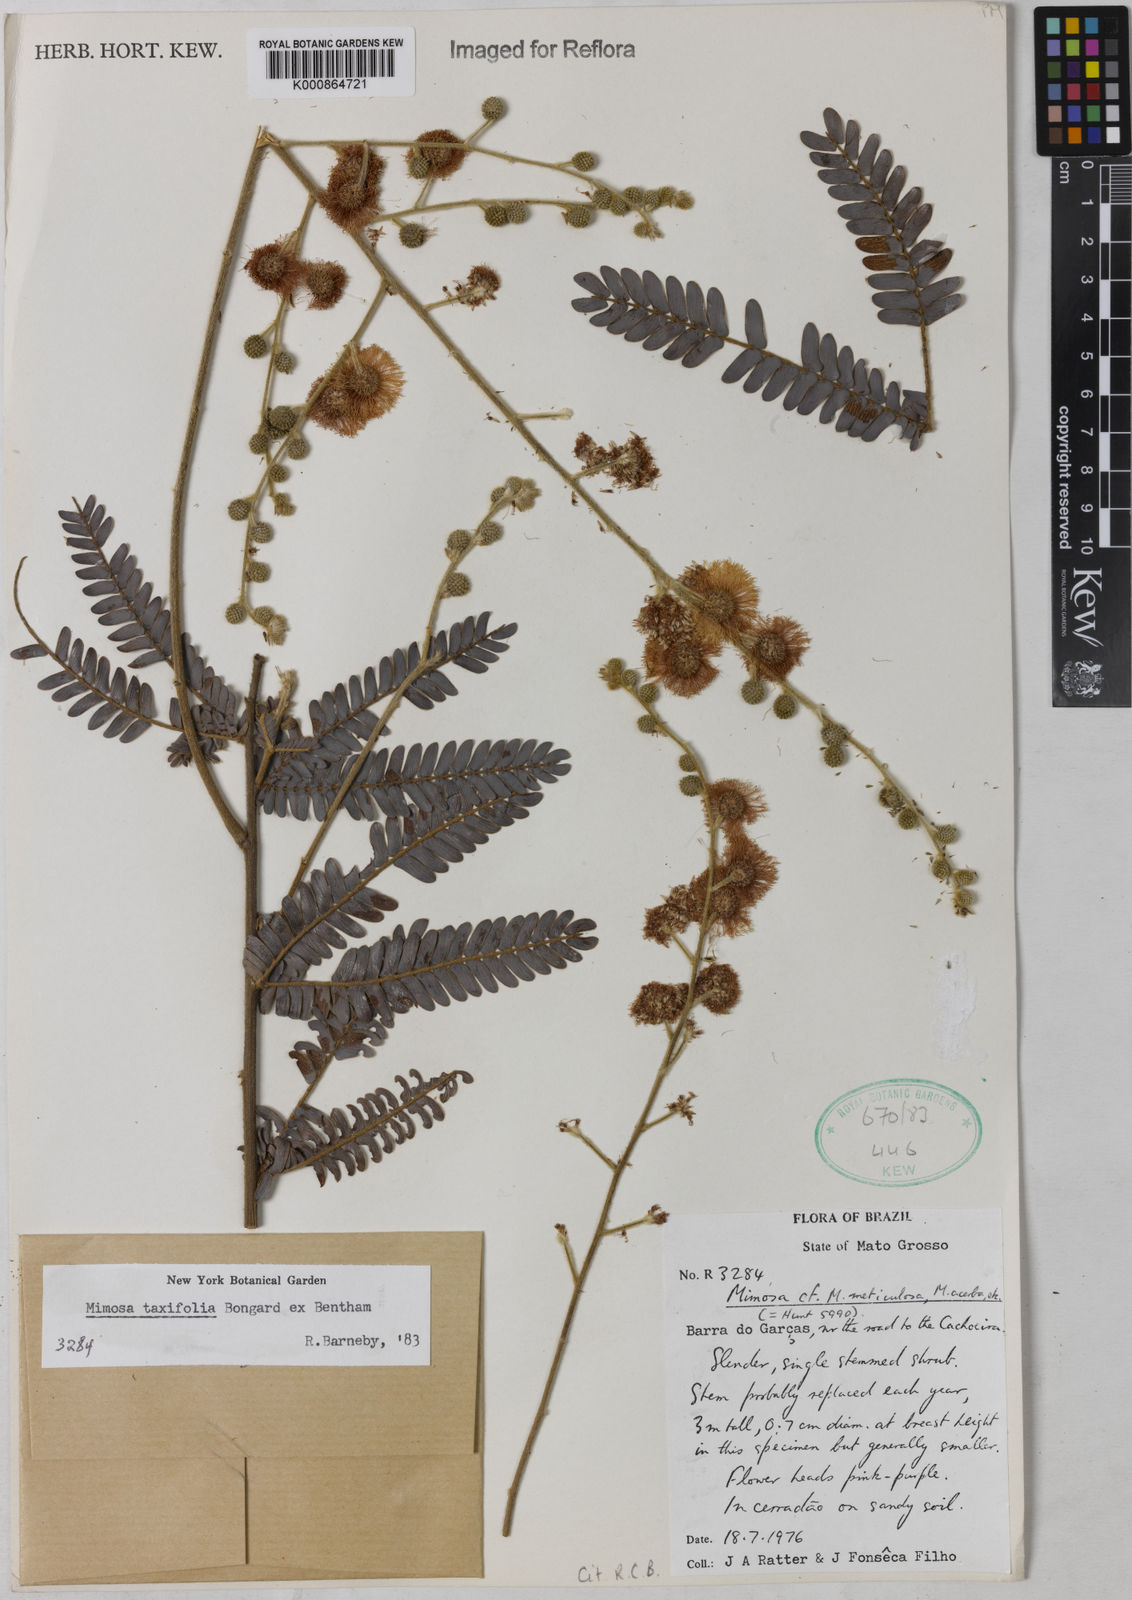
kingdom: Plantae
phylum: Tracheophyta
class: Magnoliopsida
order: Fabales
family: Fabaceae
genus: Mimosa
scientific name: Mimosa polycephala
